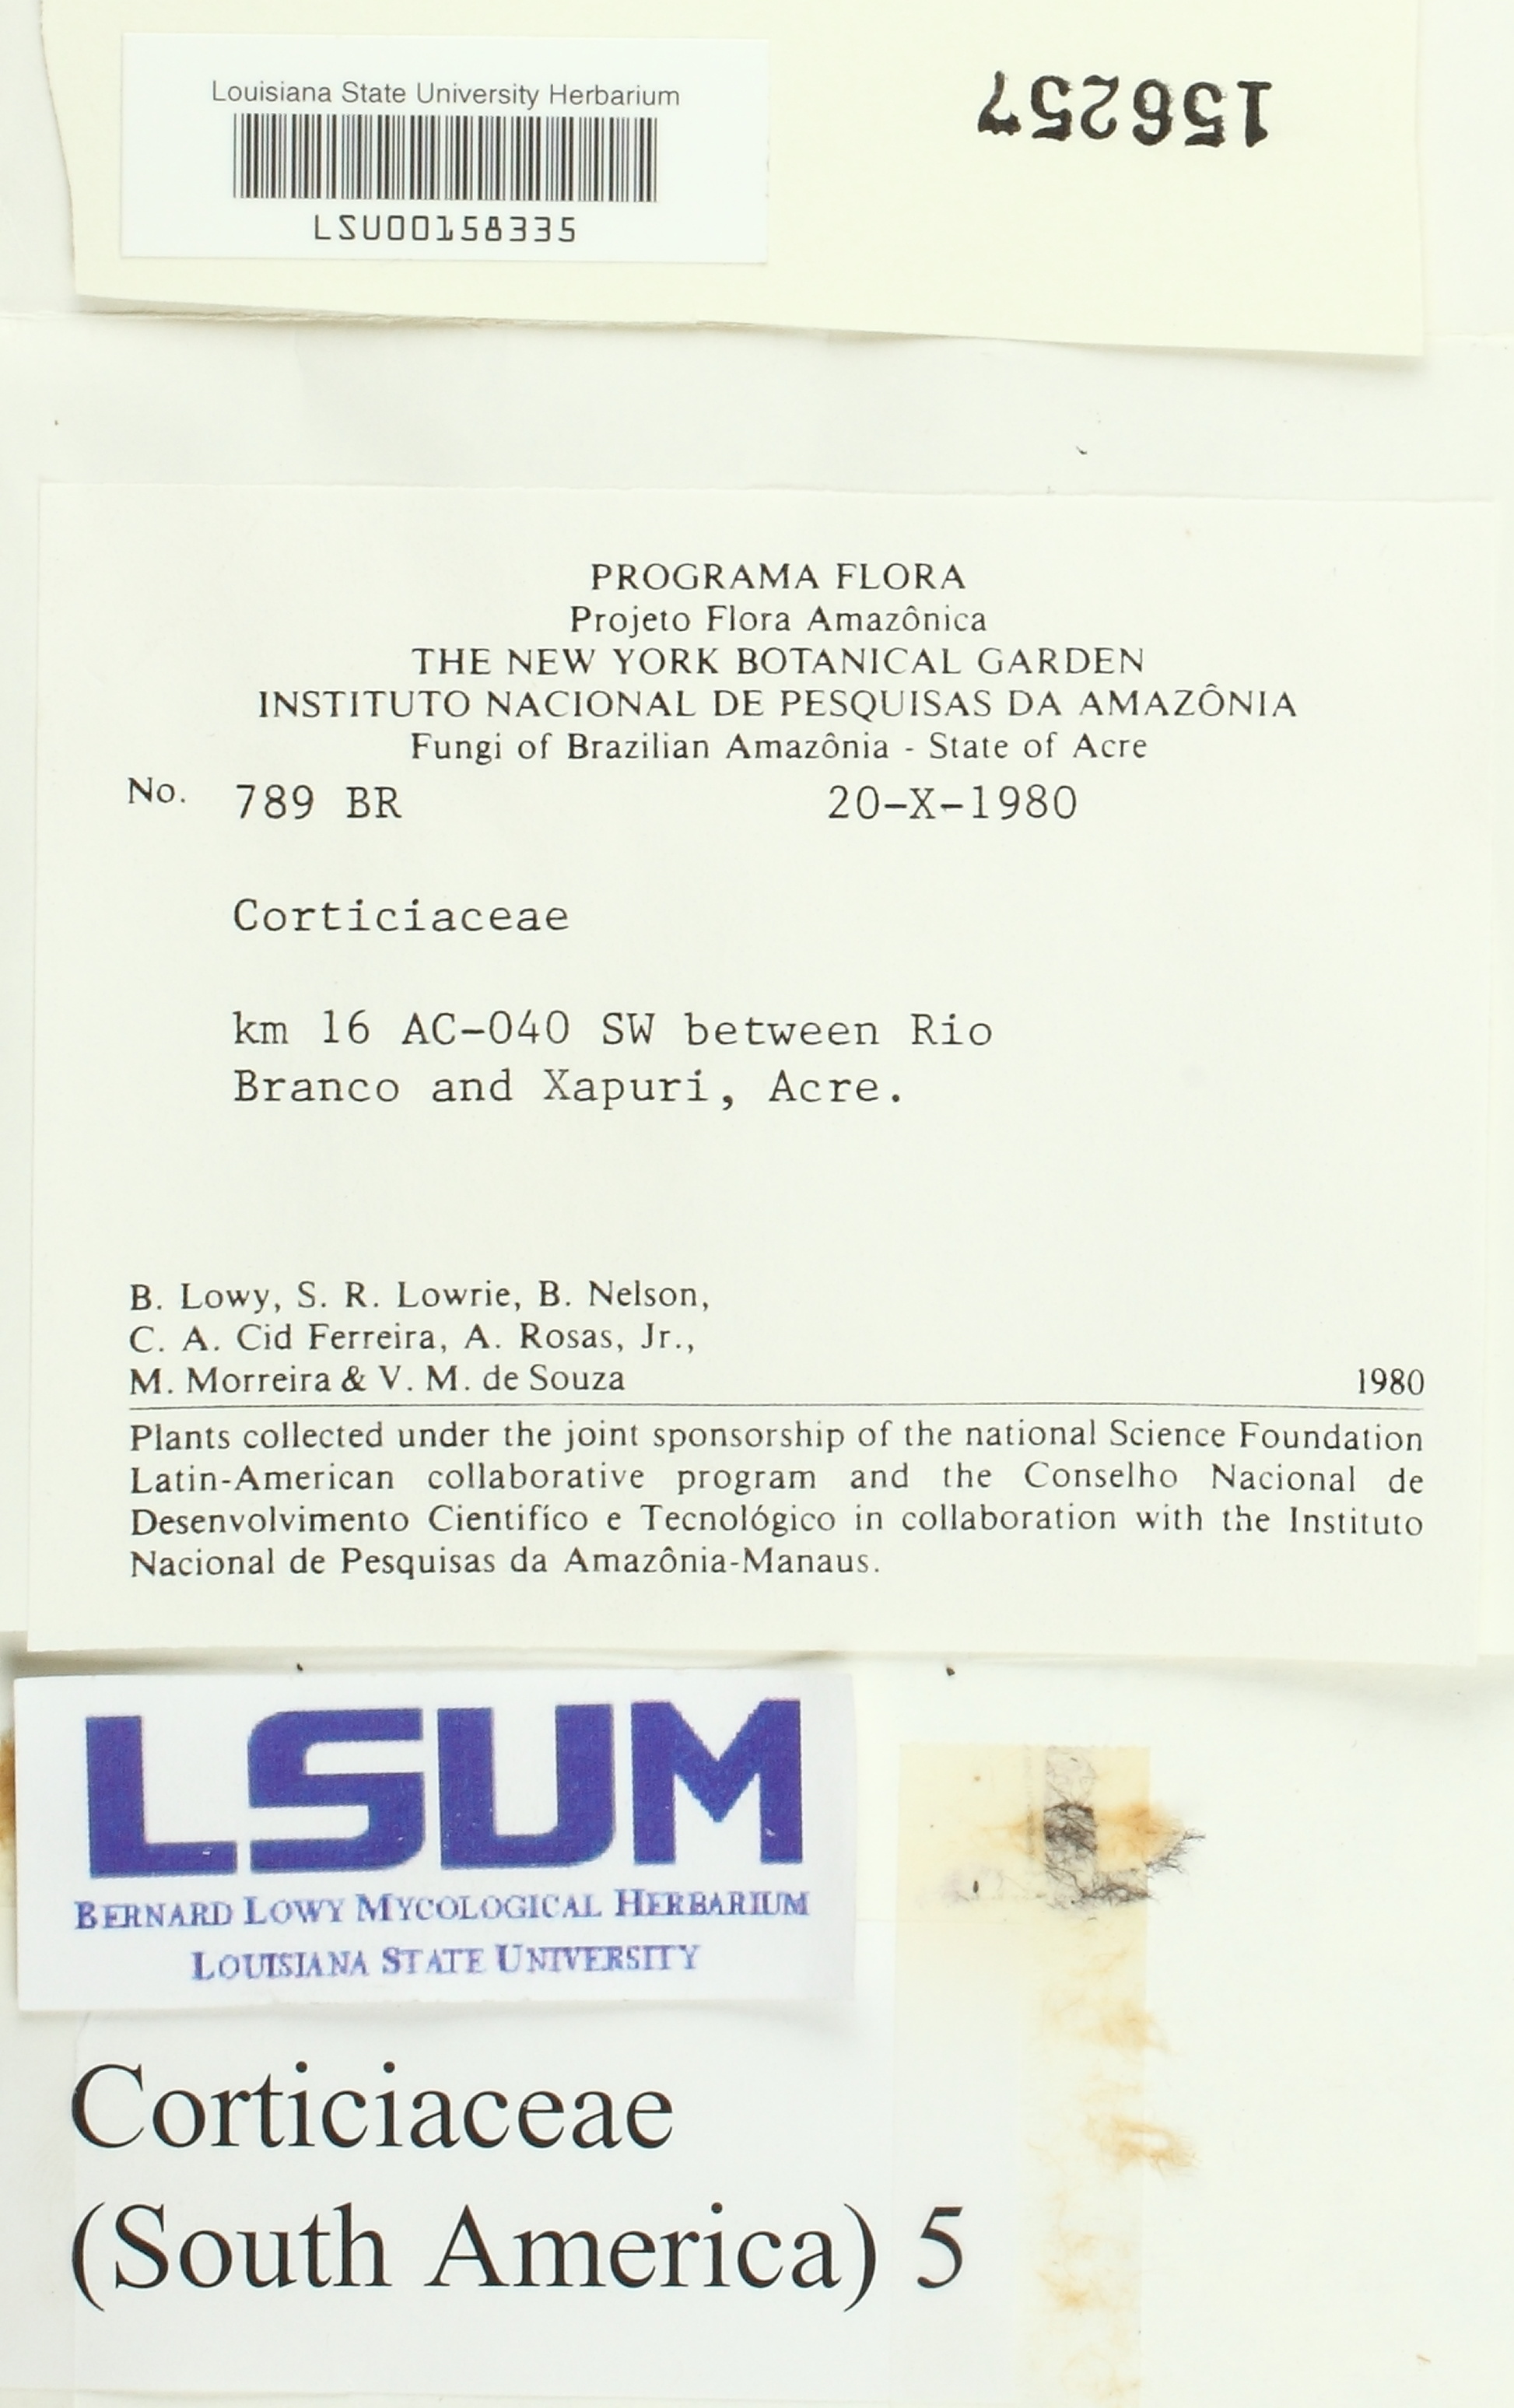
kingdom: Fungi
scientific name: Fungi
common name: Fungi
